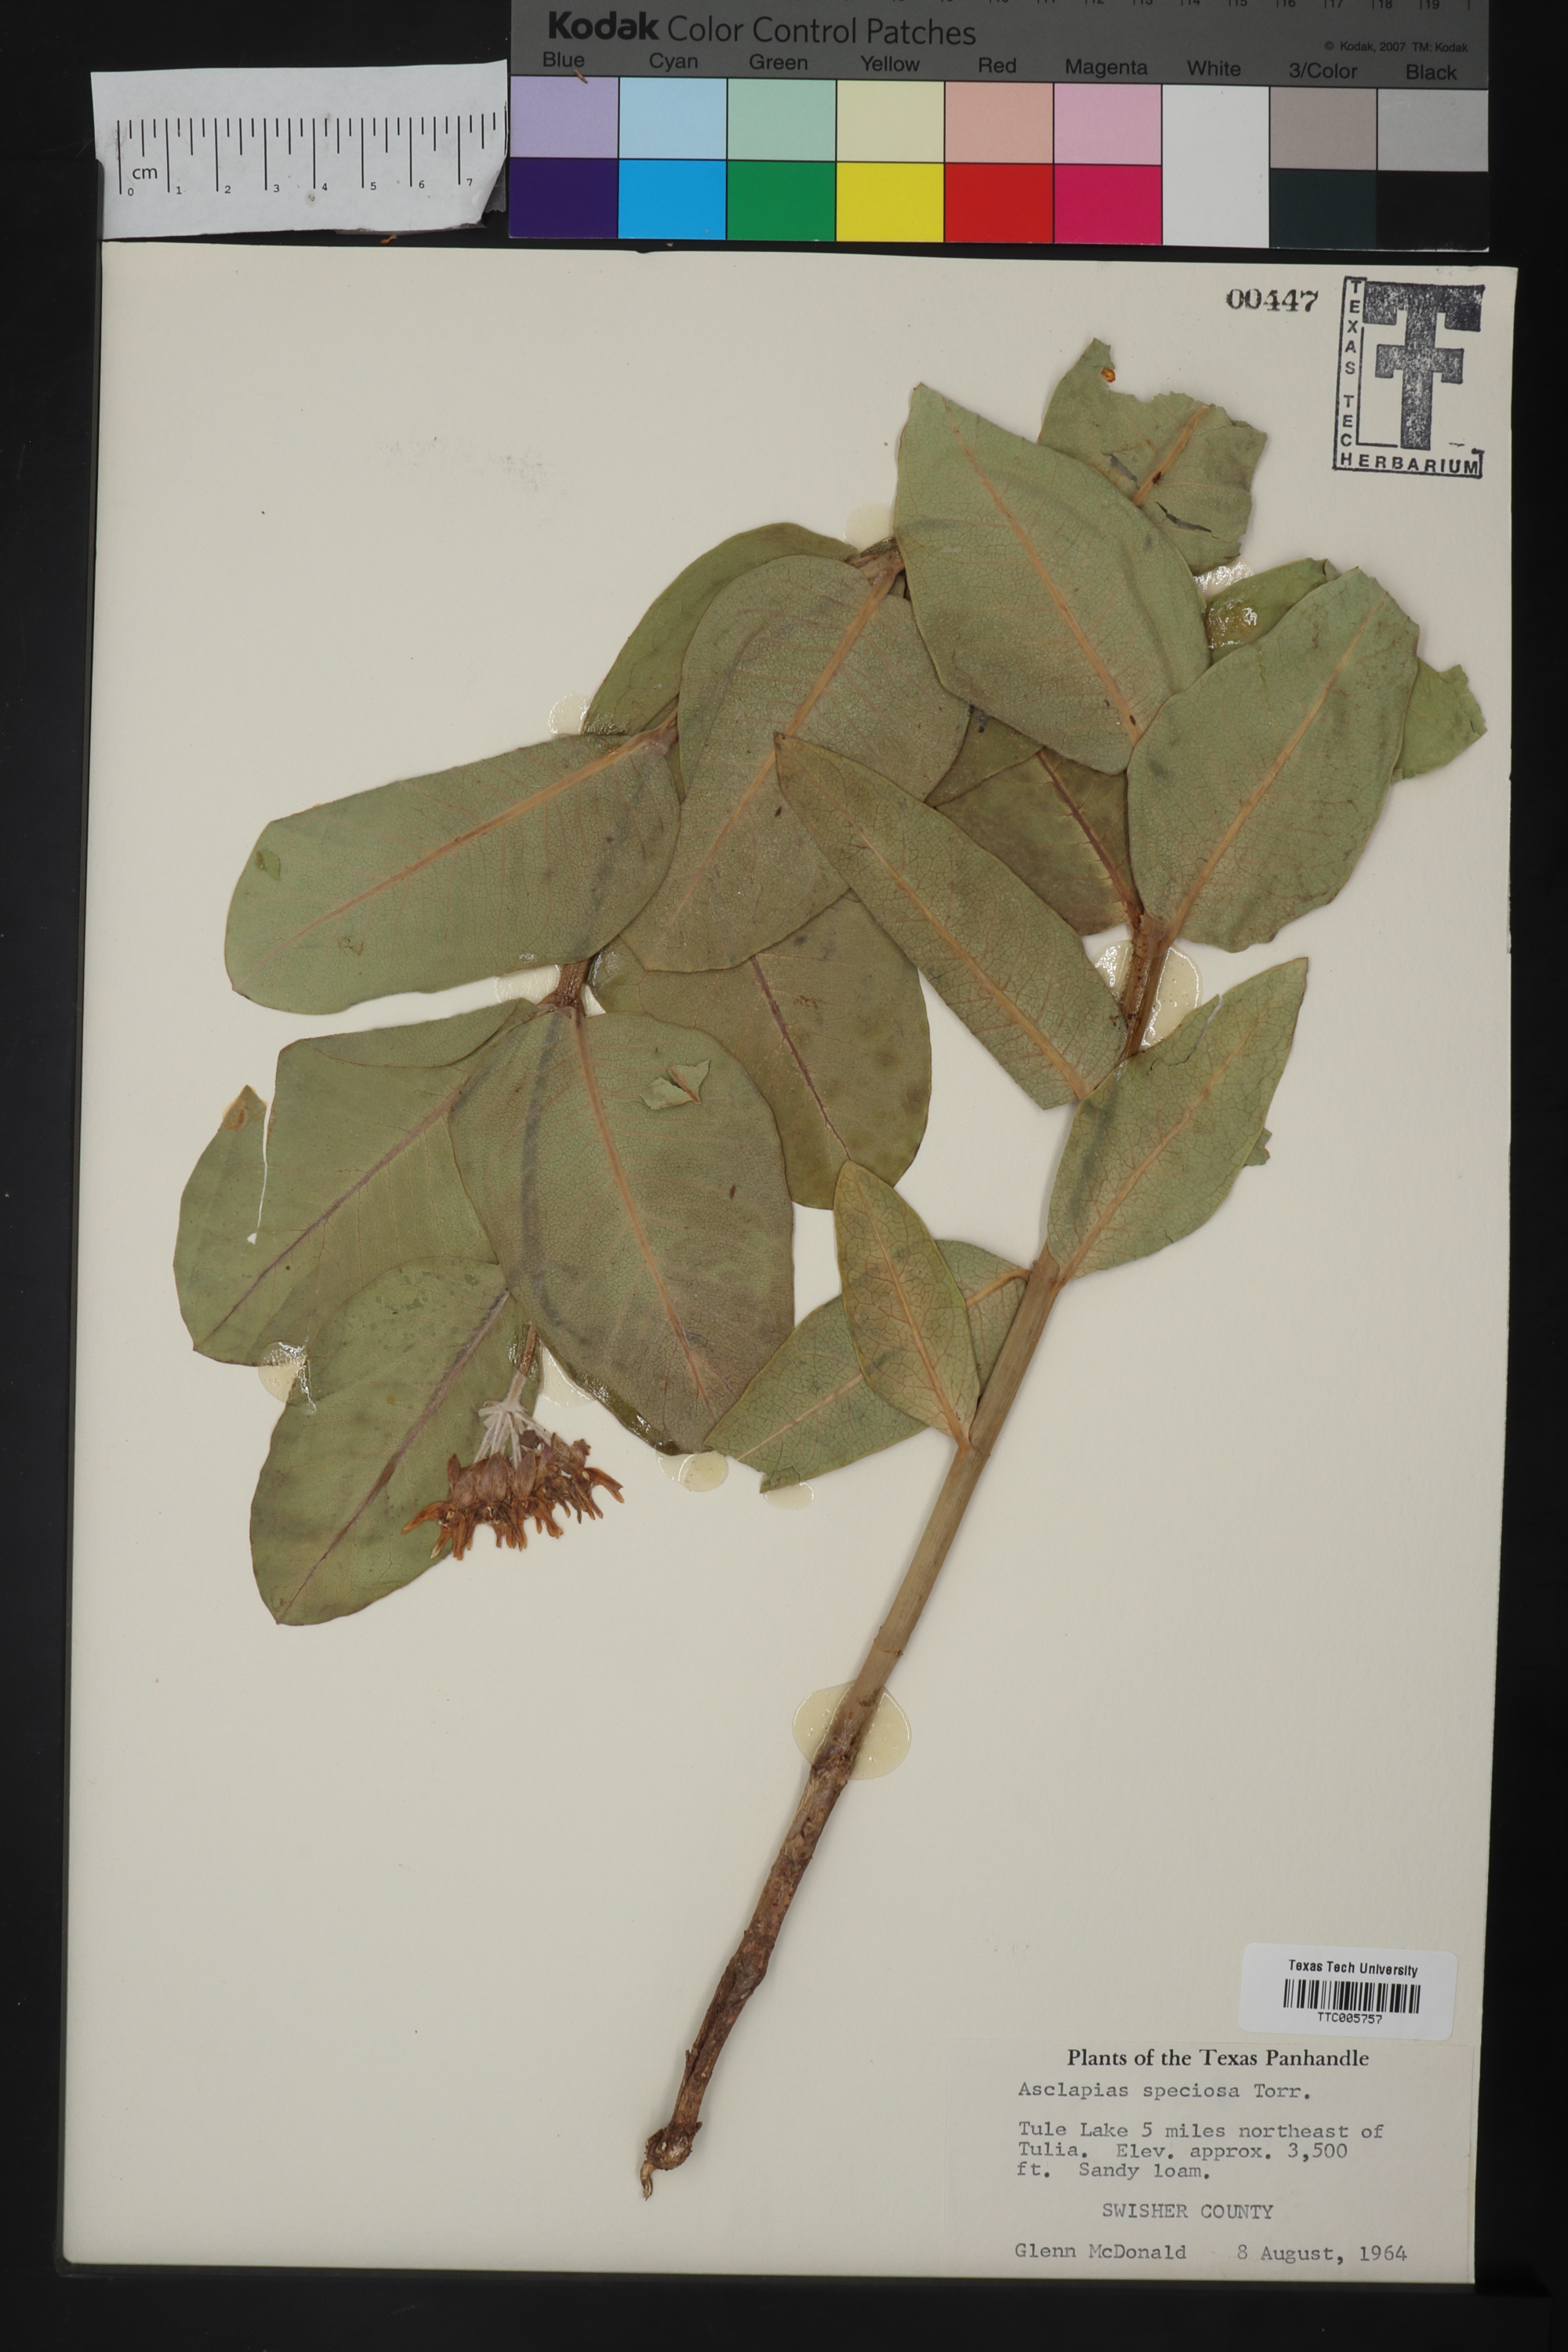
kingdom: Plantae
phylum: Tracheophyta
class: Magnoliopsida
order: Gentianales
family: Apocynaceae
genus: Asclepias
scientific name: Asclepias speciosa
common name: Showy milkweed
